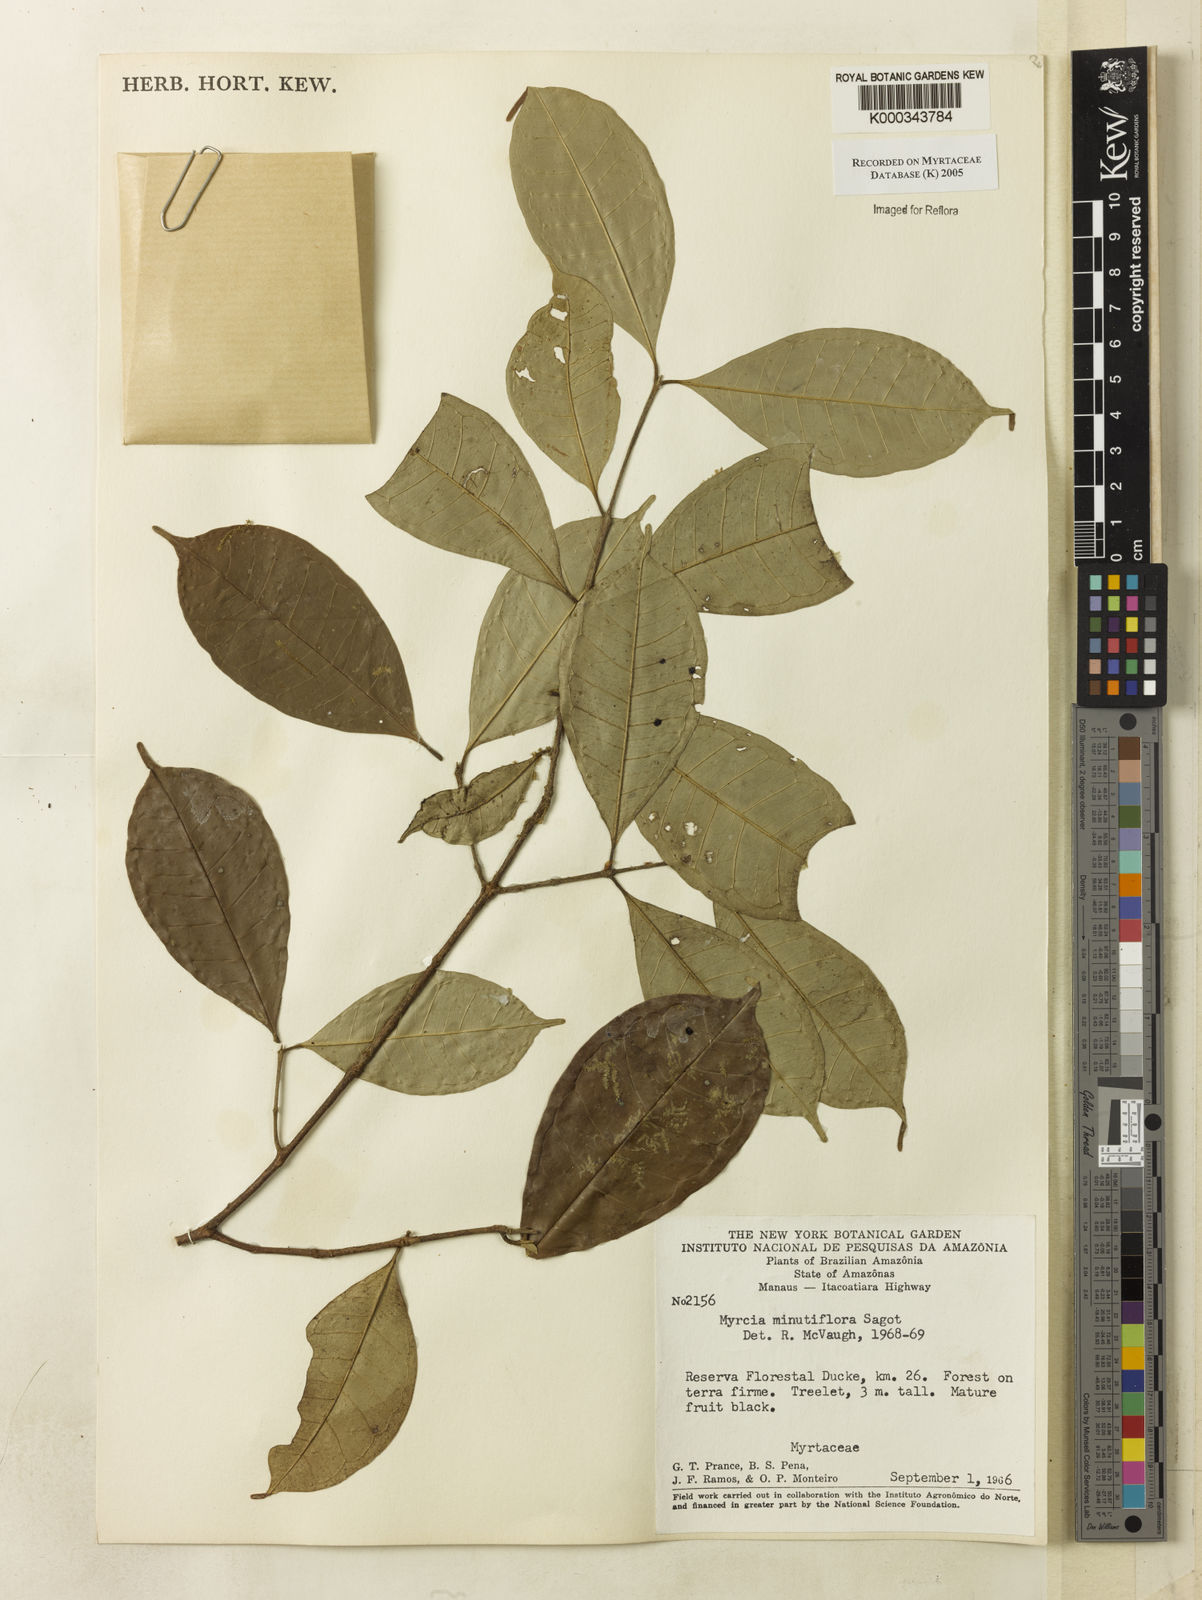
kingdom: Plantae
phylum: Tracheophyta
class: Magnoliopsida
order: Myrtales
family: Myrtaceae
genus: Myrcia
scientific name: Myrcia minutiflora
